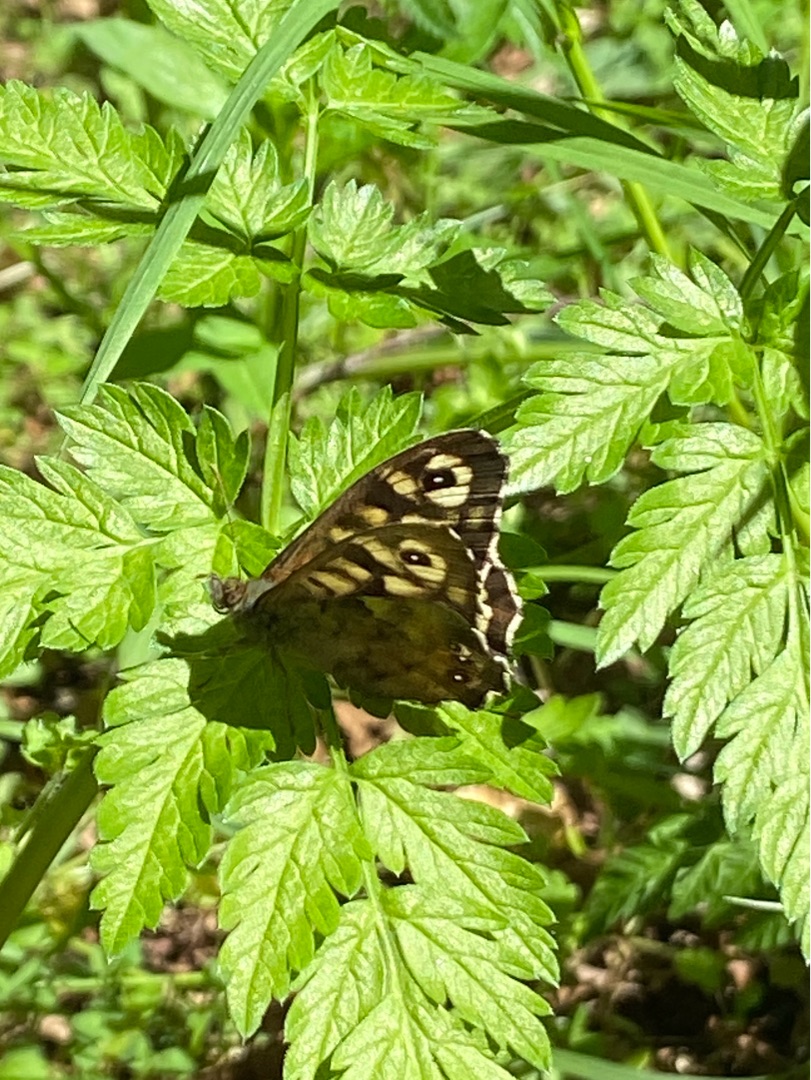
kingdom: Animalia
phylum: Arthropoda
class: Insecta
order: Lepidoptera
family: Nymphalidae
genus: Pararge
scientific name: Pararge aegeria
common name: Skovrandøje
